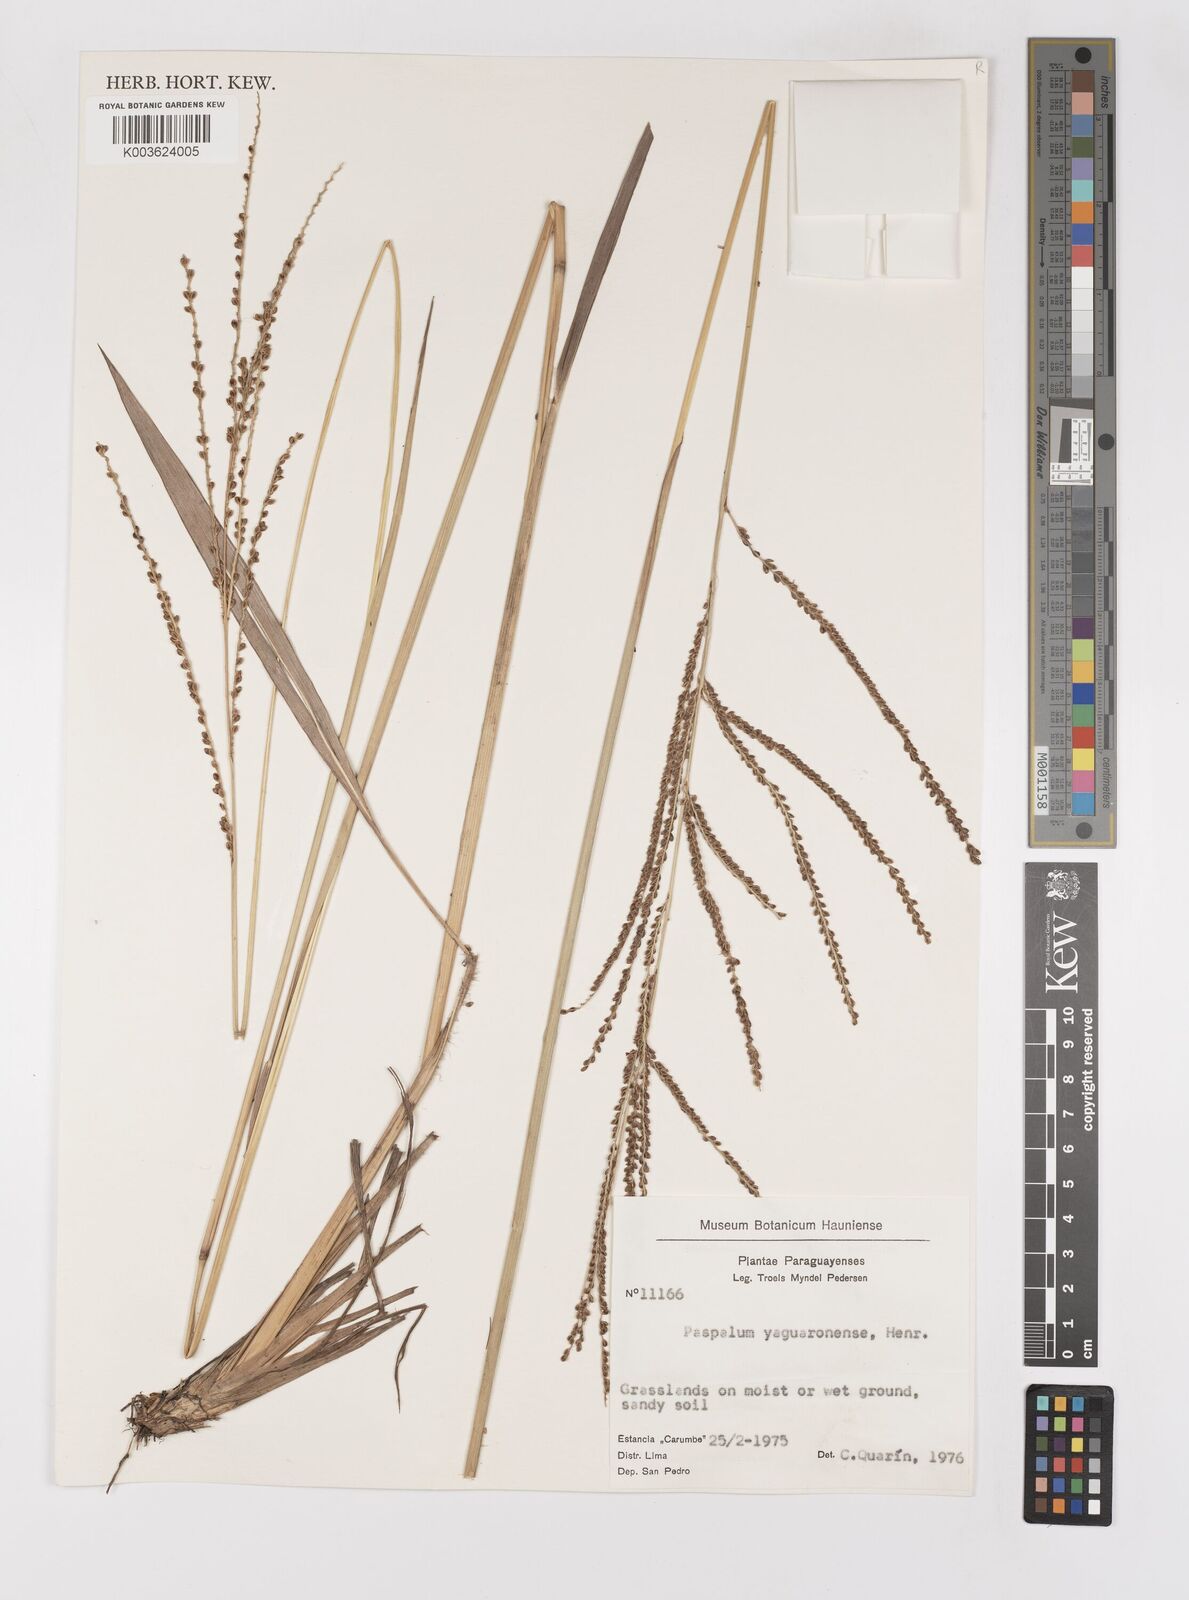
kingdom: Plantae
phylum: Tracheophyta
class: Liliopsida
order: Poales
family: Poaceae
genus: Paspalum
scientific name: Paspalum glaucescens
